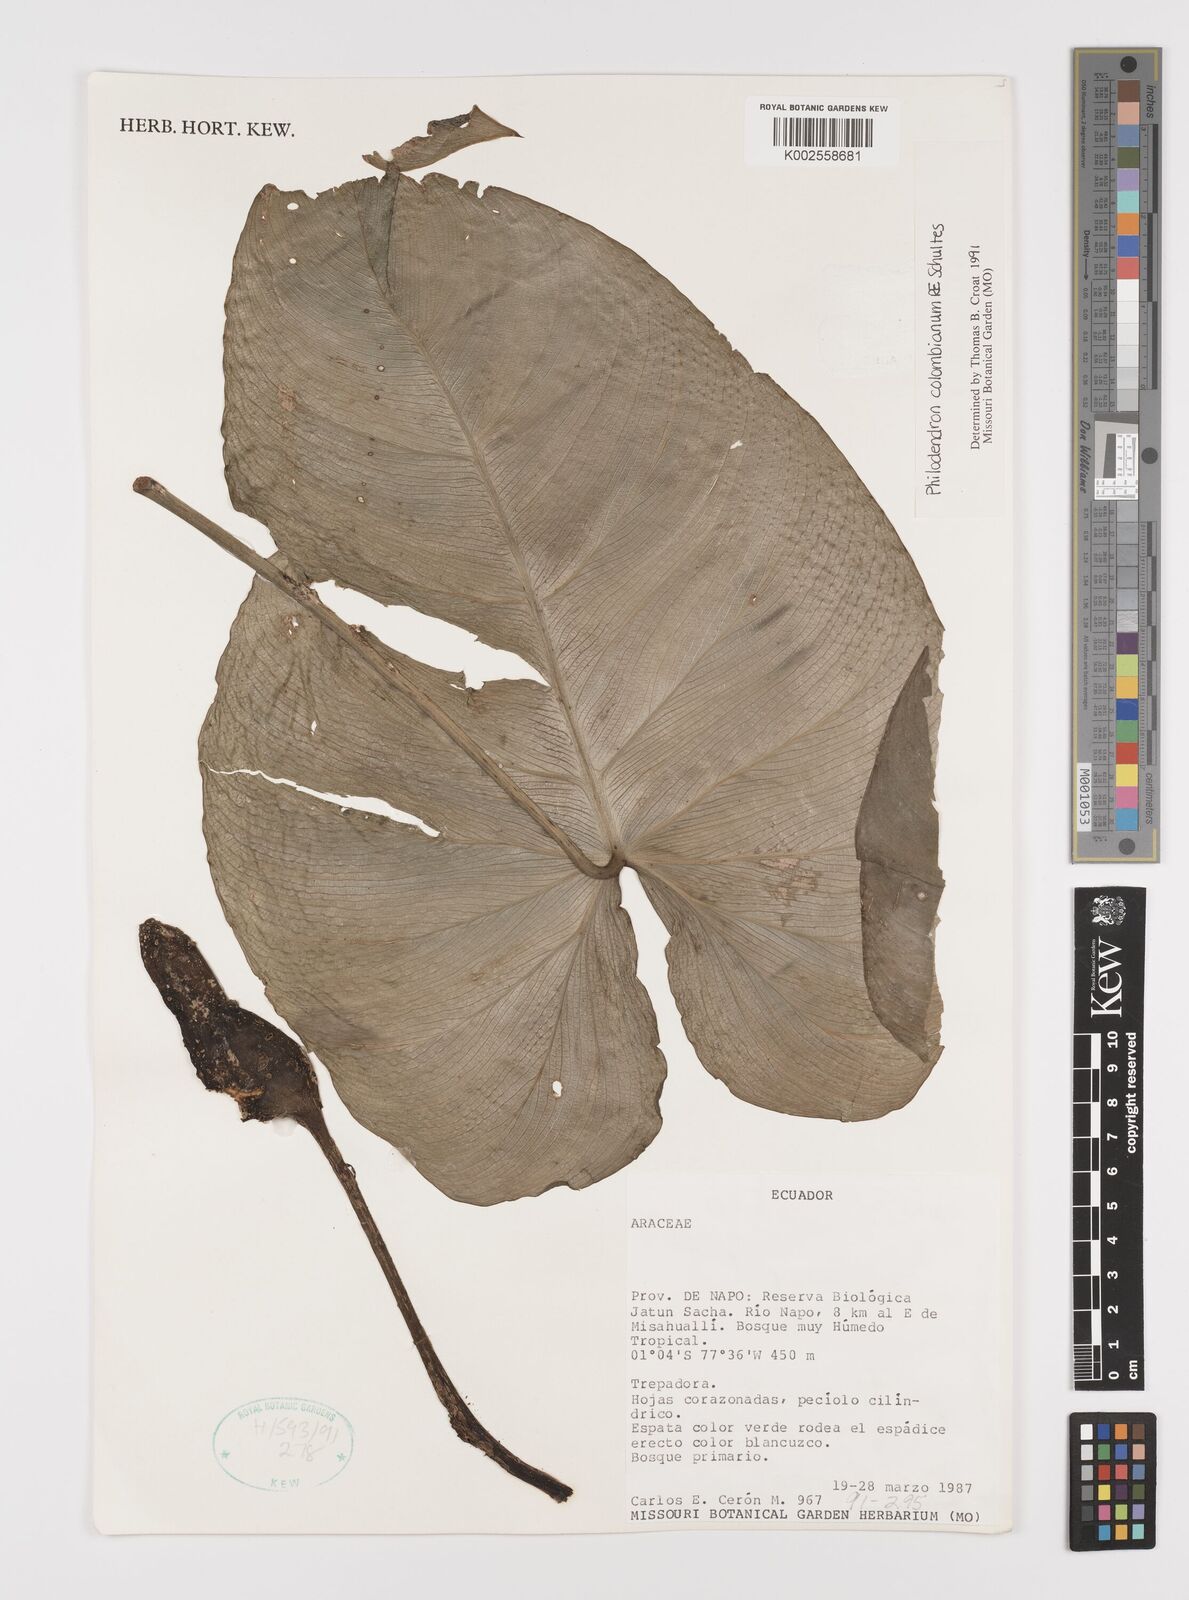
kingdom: Plantae
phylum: Tracheophyta
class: Liliopsida
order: Alismatales
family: Araceae
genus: Philodendron
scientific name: Philodendron colombianum
